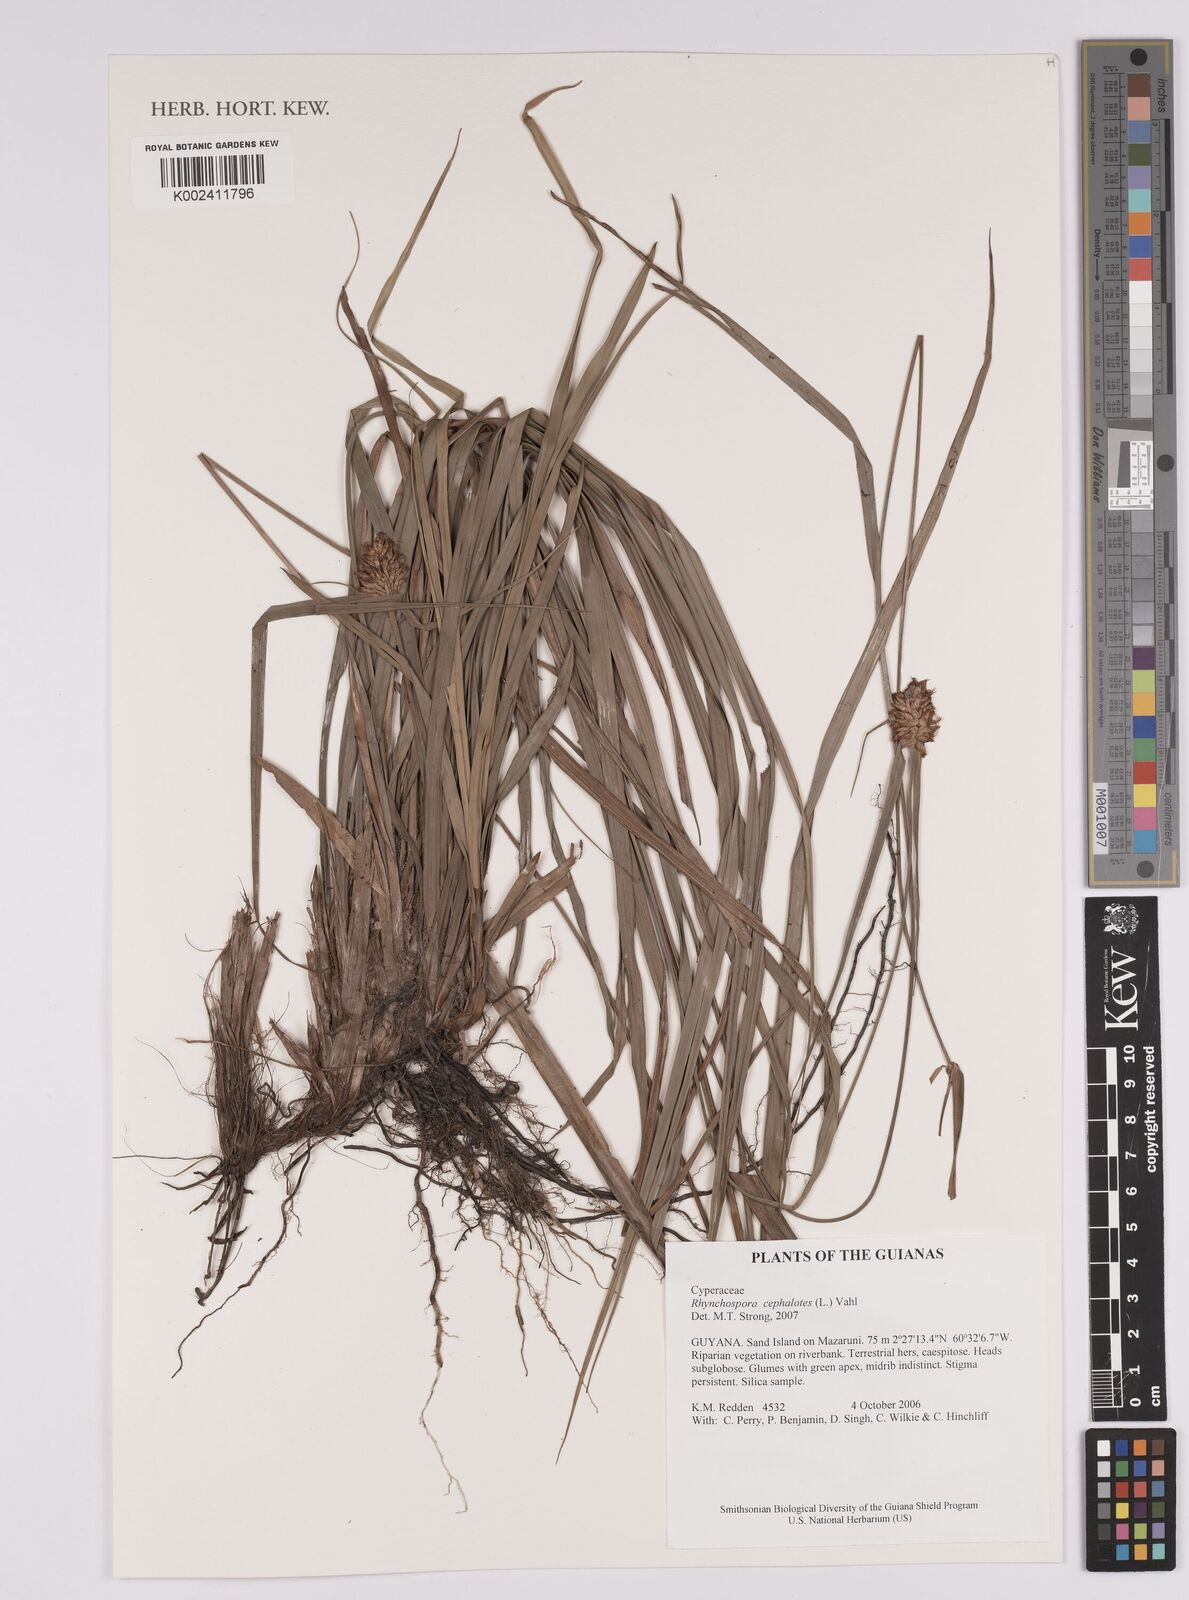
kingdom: Plantae
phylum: Tracheophyta
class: Liliopsida
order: Poales
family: Cyperaceae
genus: Rhynchospora
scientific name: Rhynchospora cephalotes
